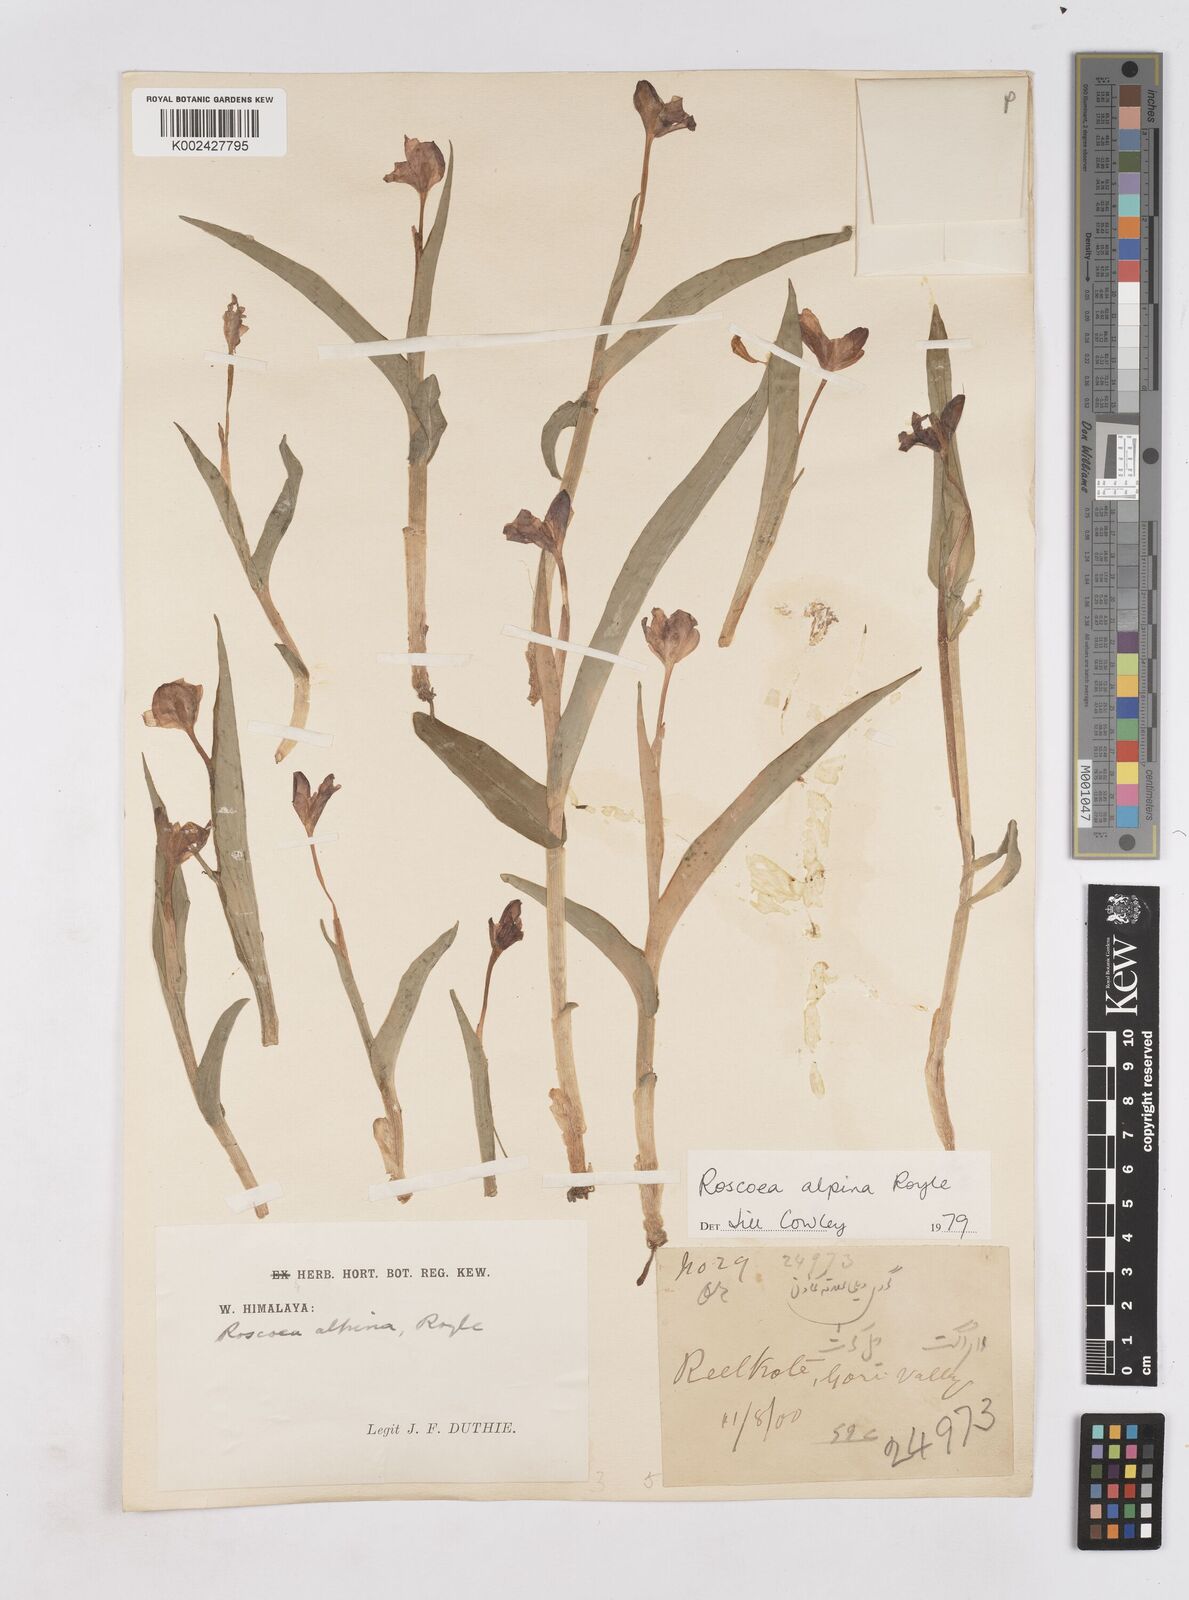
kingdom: Plantae
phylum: Tracheophyta
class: Liliopsida
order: Zingiberales
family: Zingiberaceae
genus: Roscoea
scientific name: Roscoea alpina
